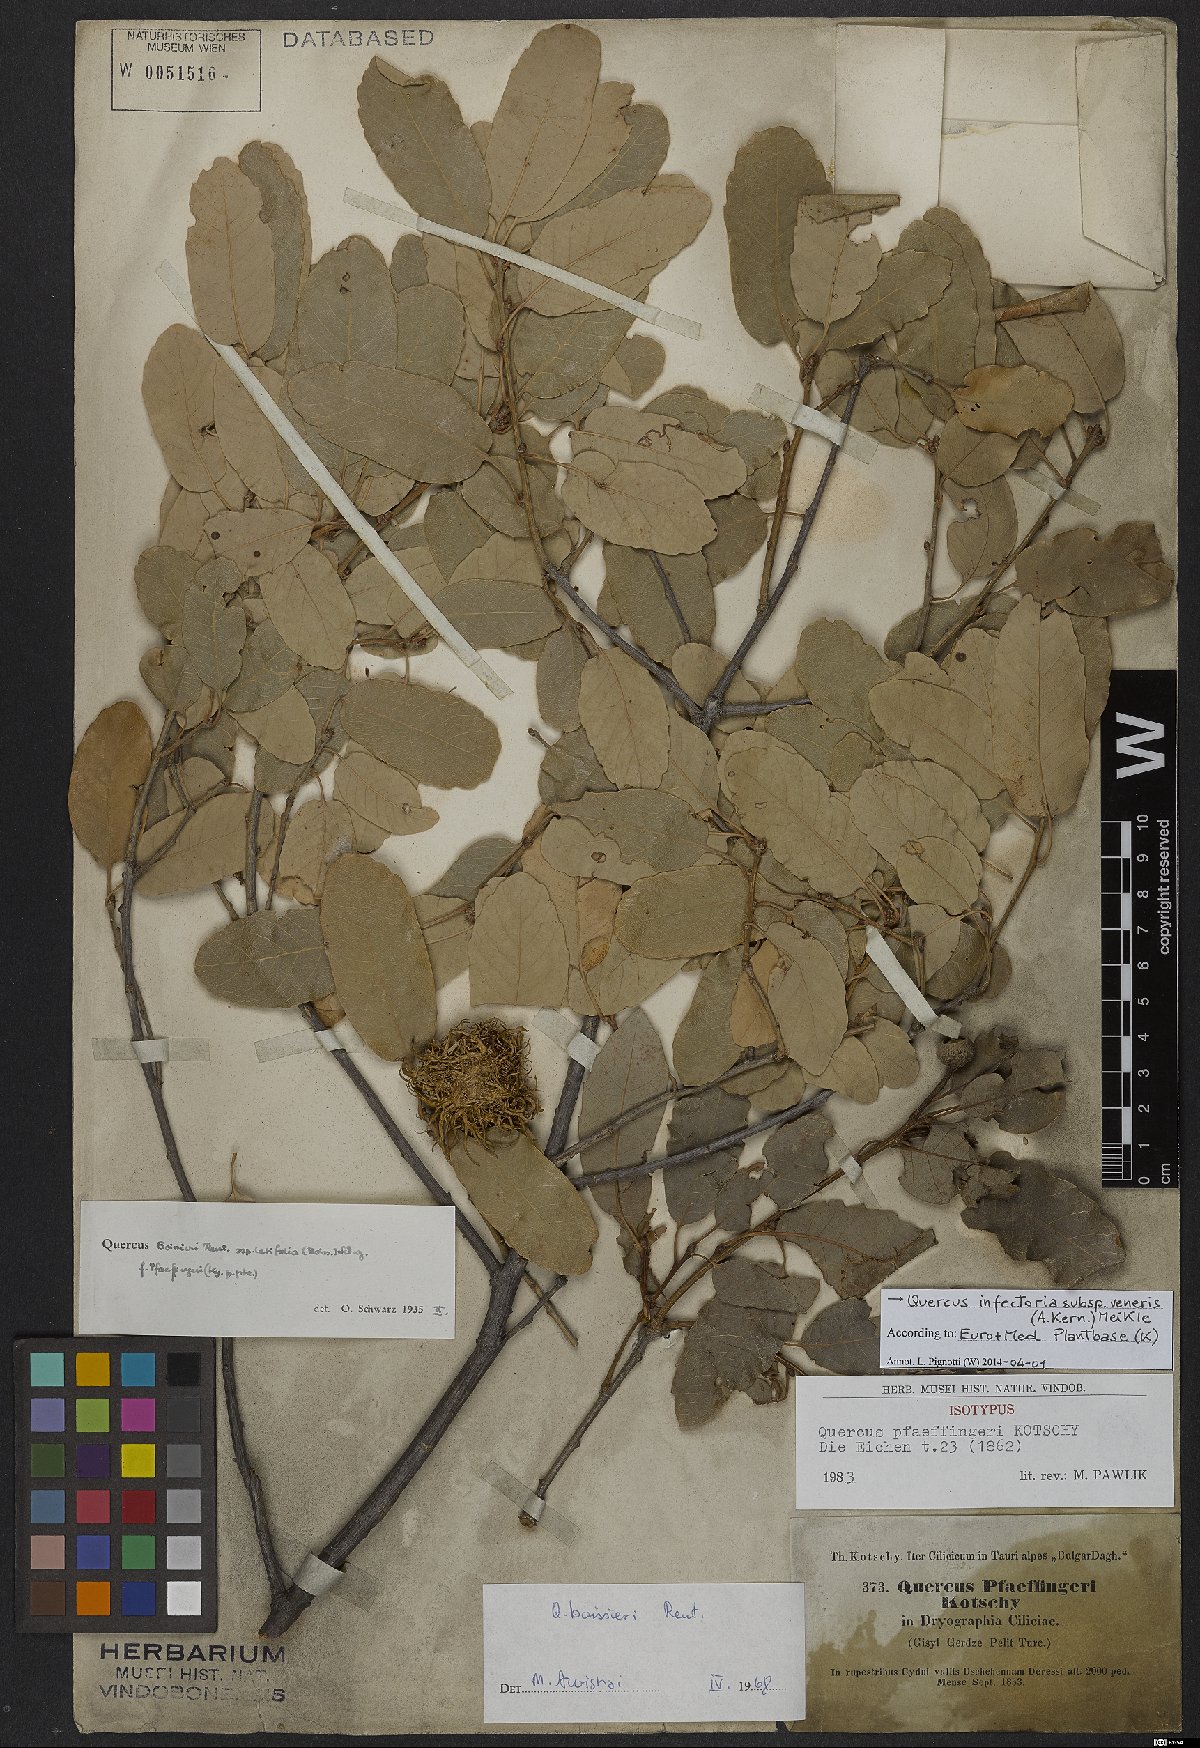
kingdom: Plantae
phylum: Tracheophyta
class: Magnoliopsida
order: Fagales
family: Fagaceae
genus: Quercus
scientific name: Quercus infectoria
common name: Aleppo oak
